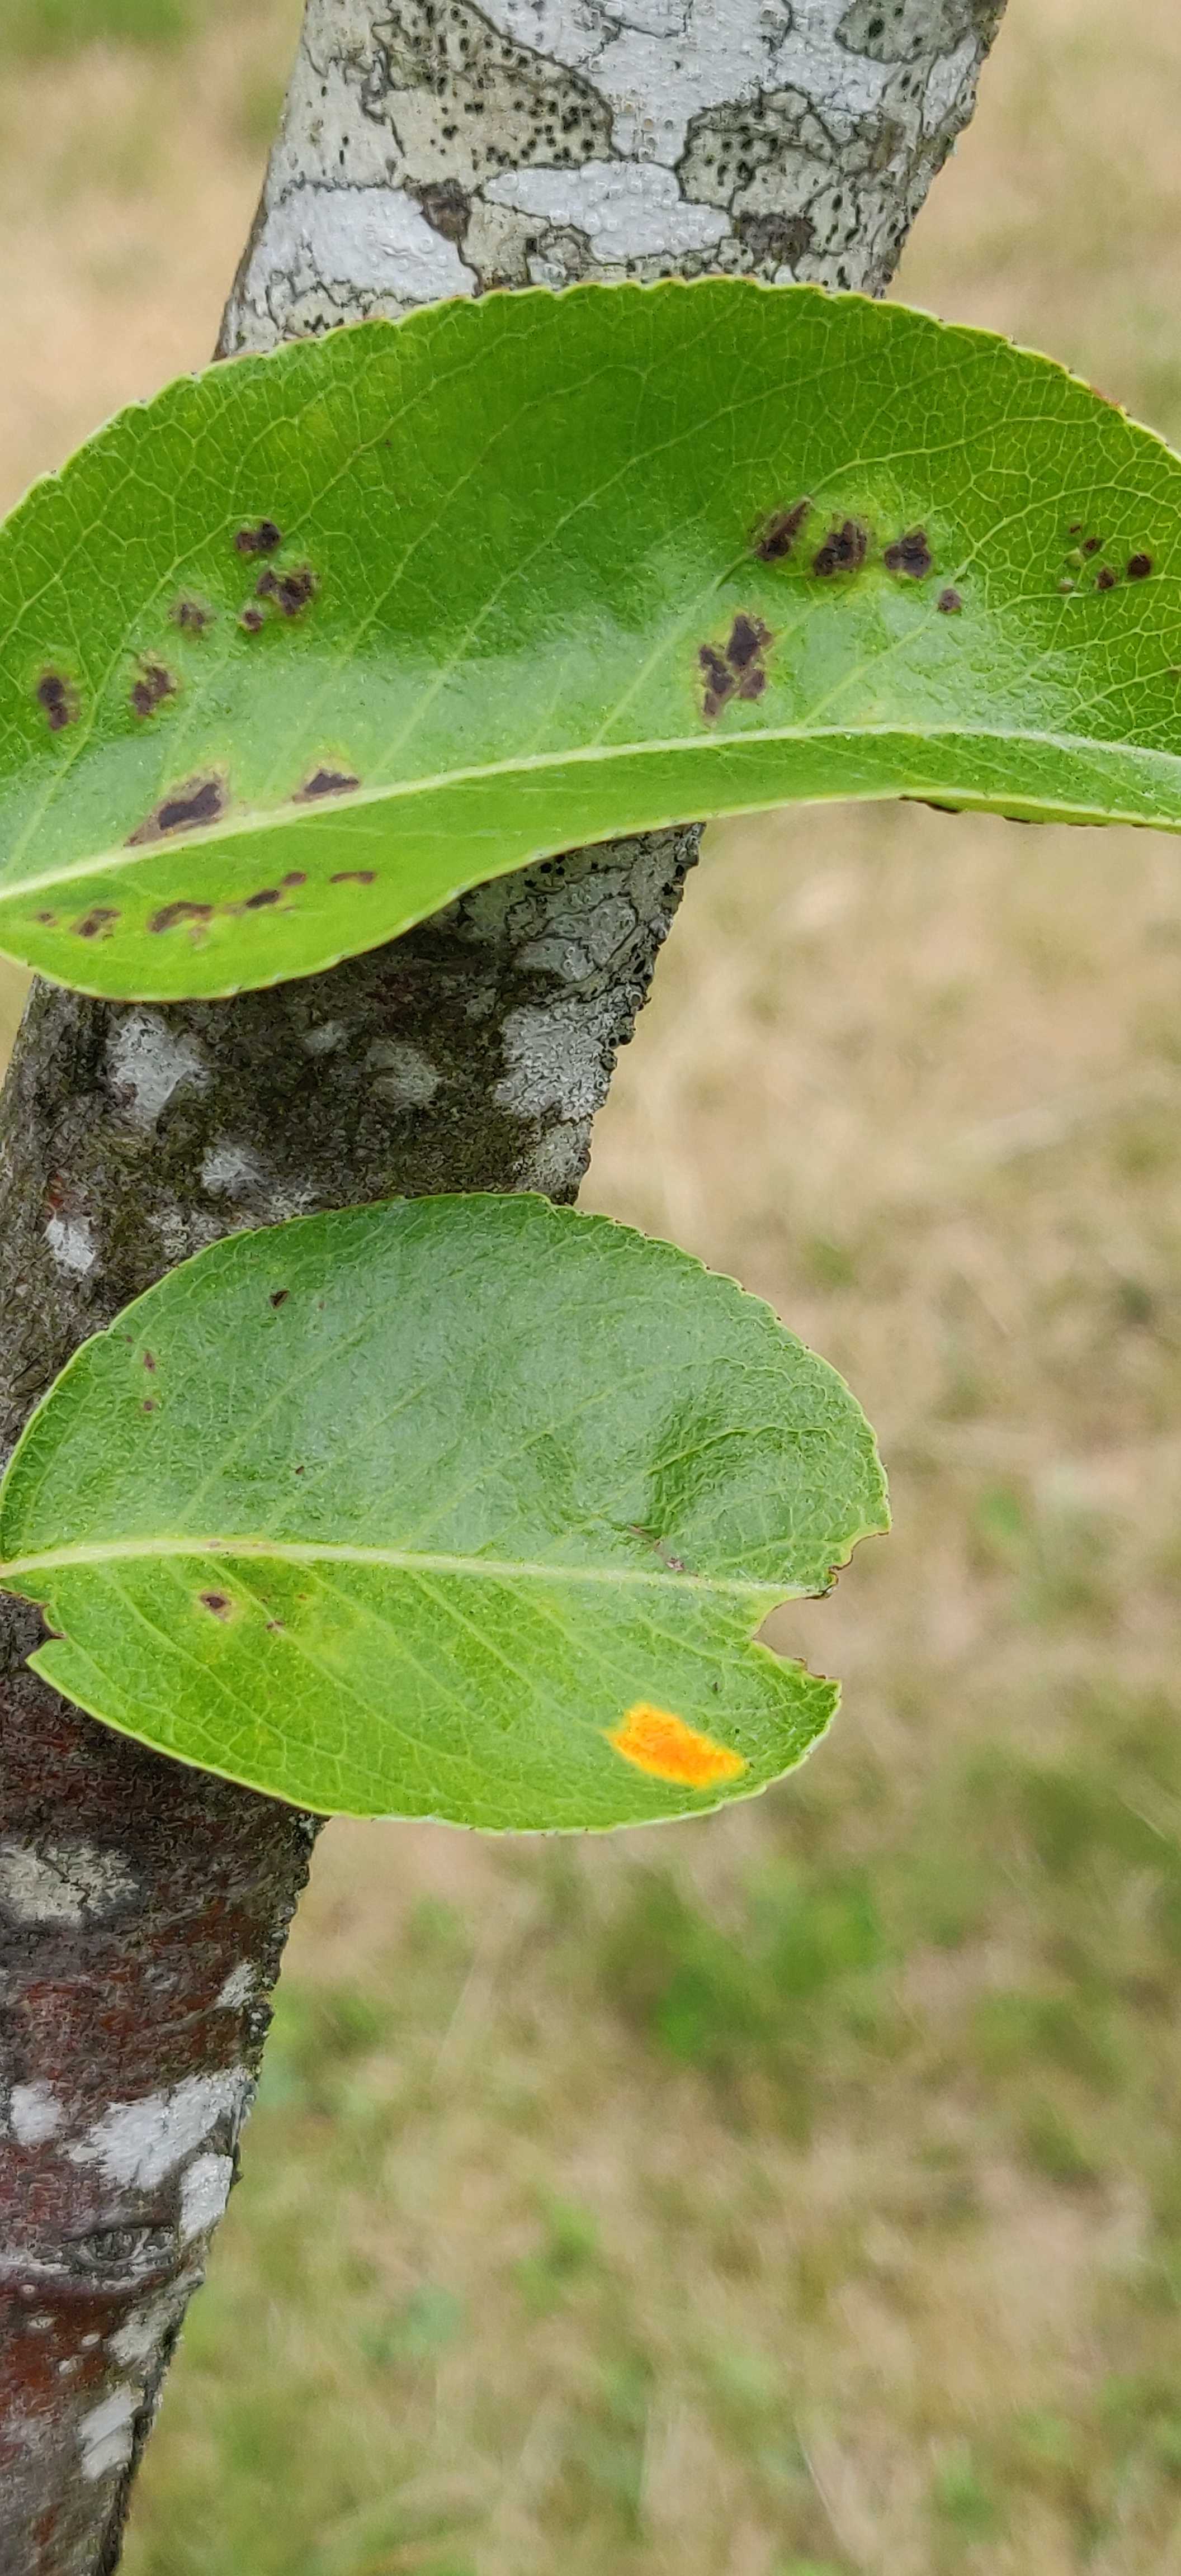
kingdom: Fungi
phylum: Basidiomycota
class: Pucciniomycetes
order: Pucciniales
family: Gymnosporangiaceae
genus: Gymnosporangium
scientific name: Gymnosporangium sabinae
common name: pæregitter-bævrerust
